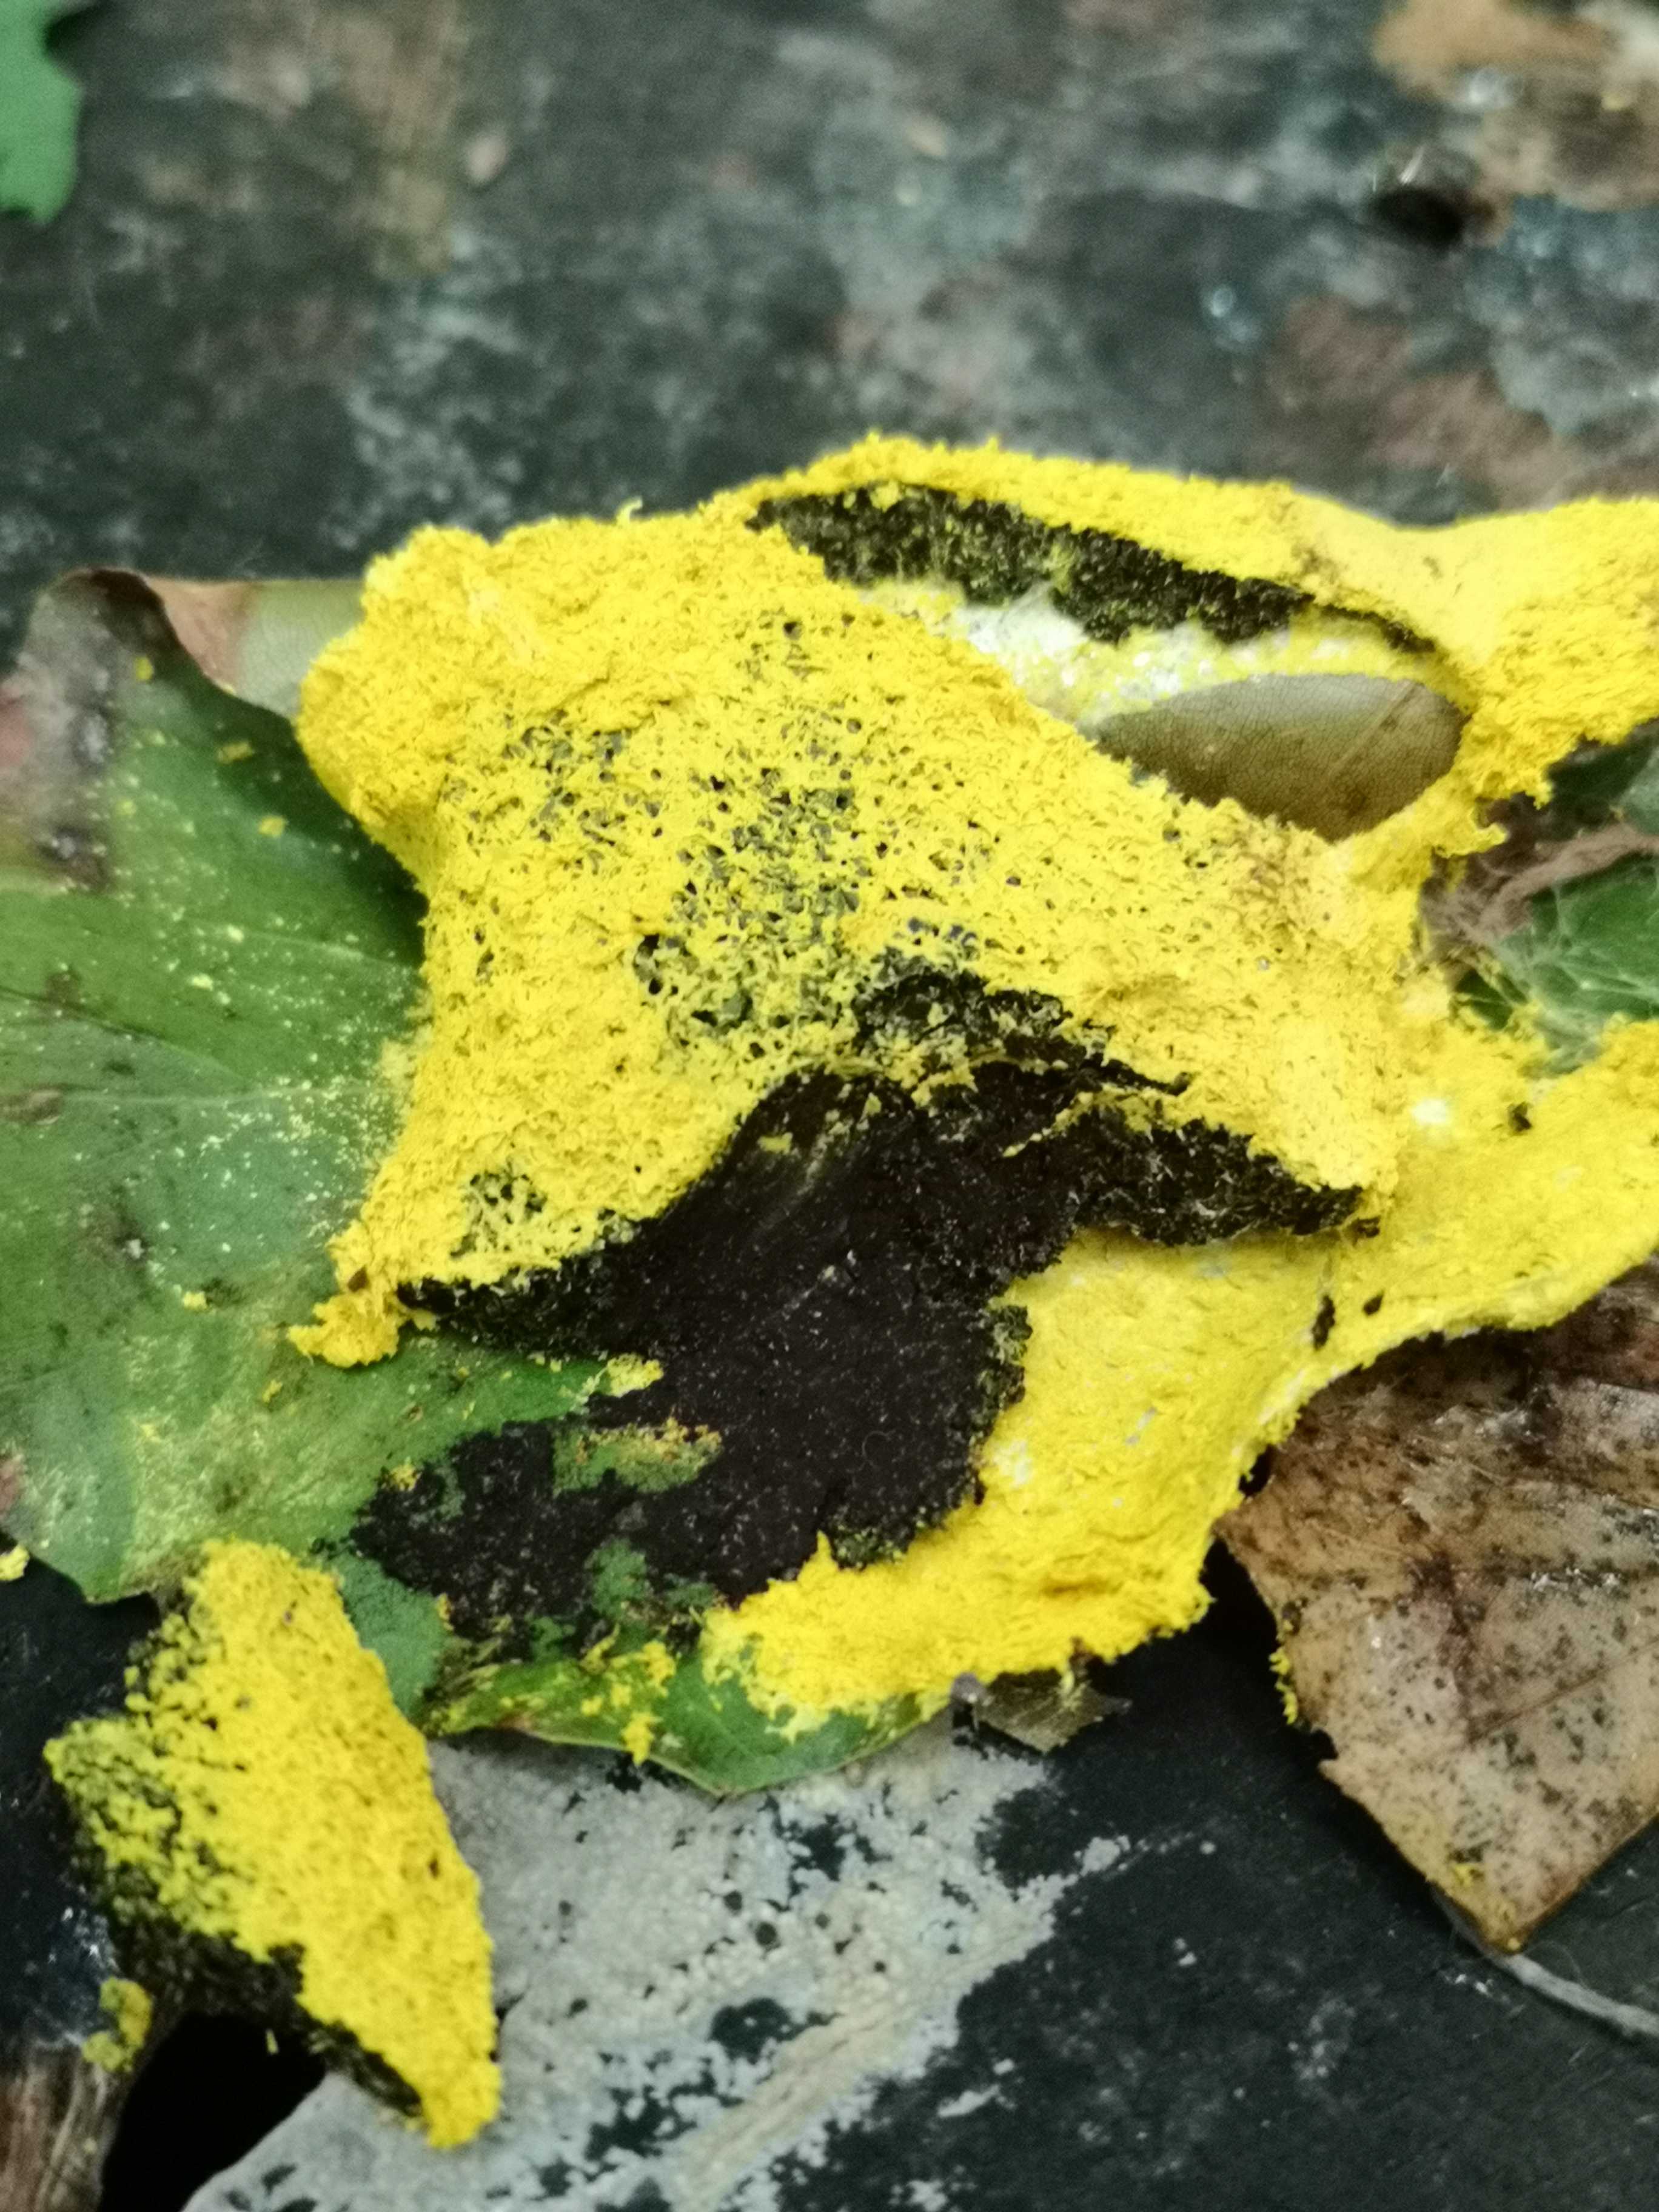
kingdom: Protozoa
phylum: Mycetozoa
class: Myxomycetes
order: Physarales
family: Physaraceae
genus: Fuligo
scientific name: Fuligo septica
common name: gul troldsmør
